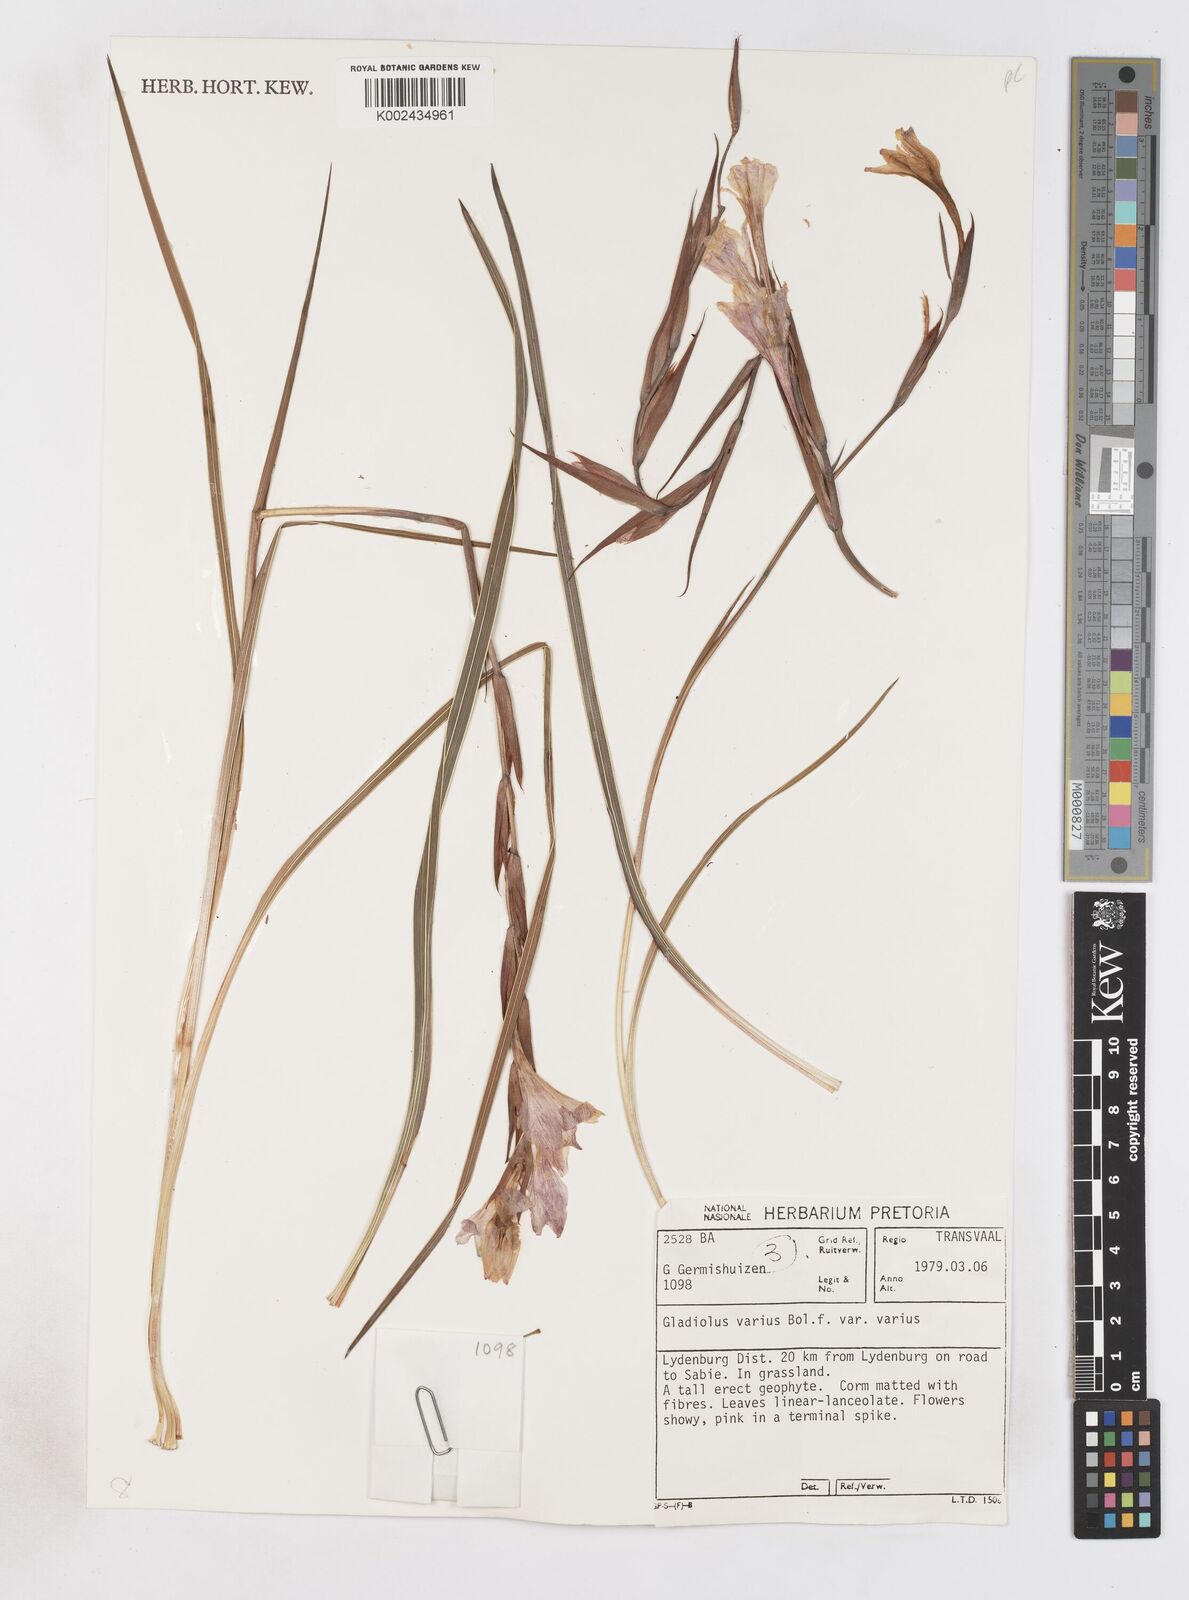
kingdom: Plantae
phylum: Tracheophyta
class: Liliopsida
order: Asparagales
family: Iridaceae
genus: Gladiolus
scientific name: Gladiolus varius
